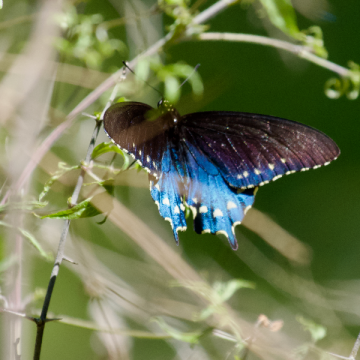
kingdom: Animalia
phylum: Arthropoda
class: Insecta
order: Lepidoptera
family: Papilionidae
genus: Battus
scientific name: Battus philenor
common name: Pipevine Swallowtail
